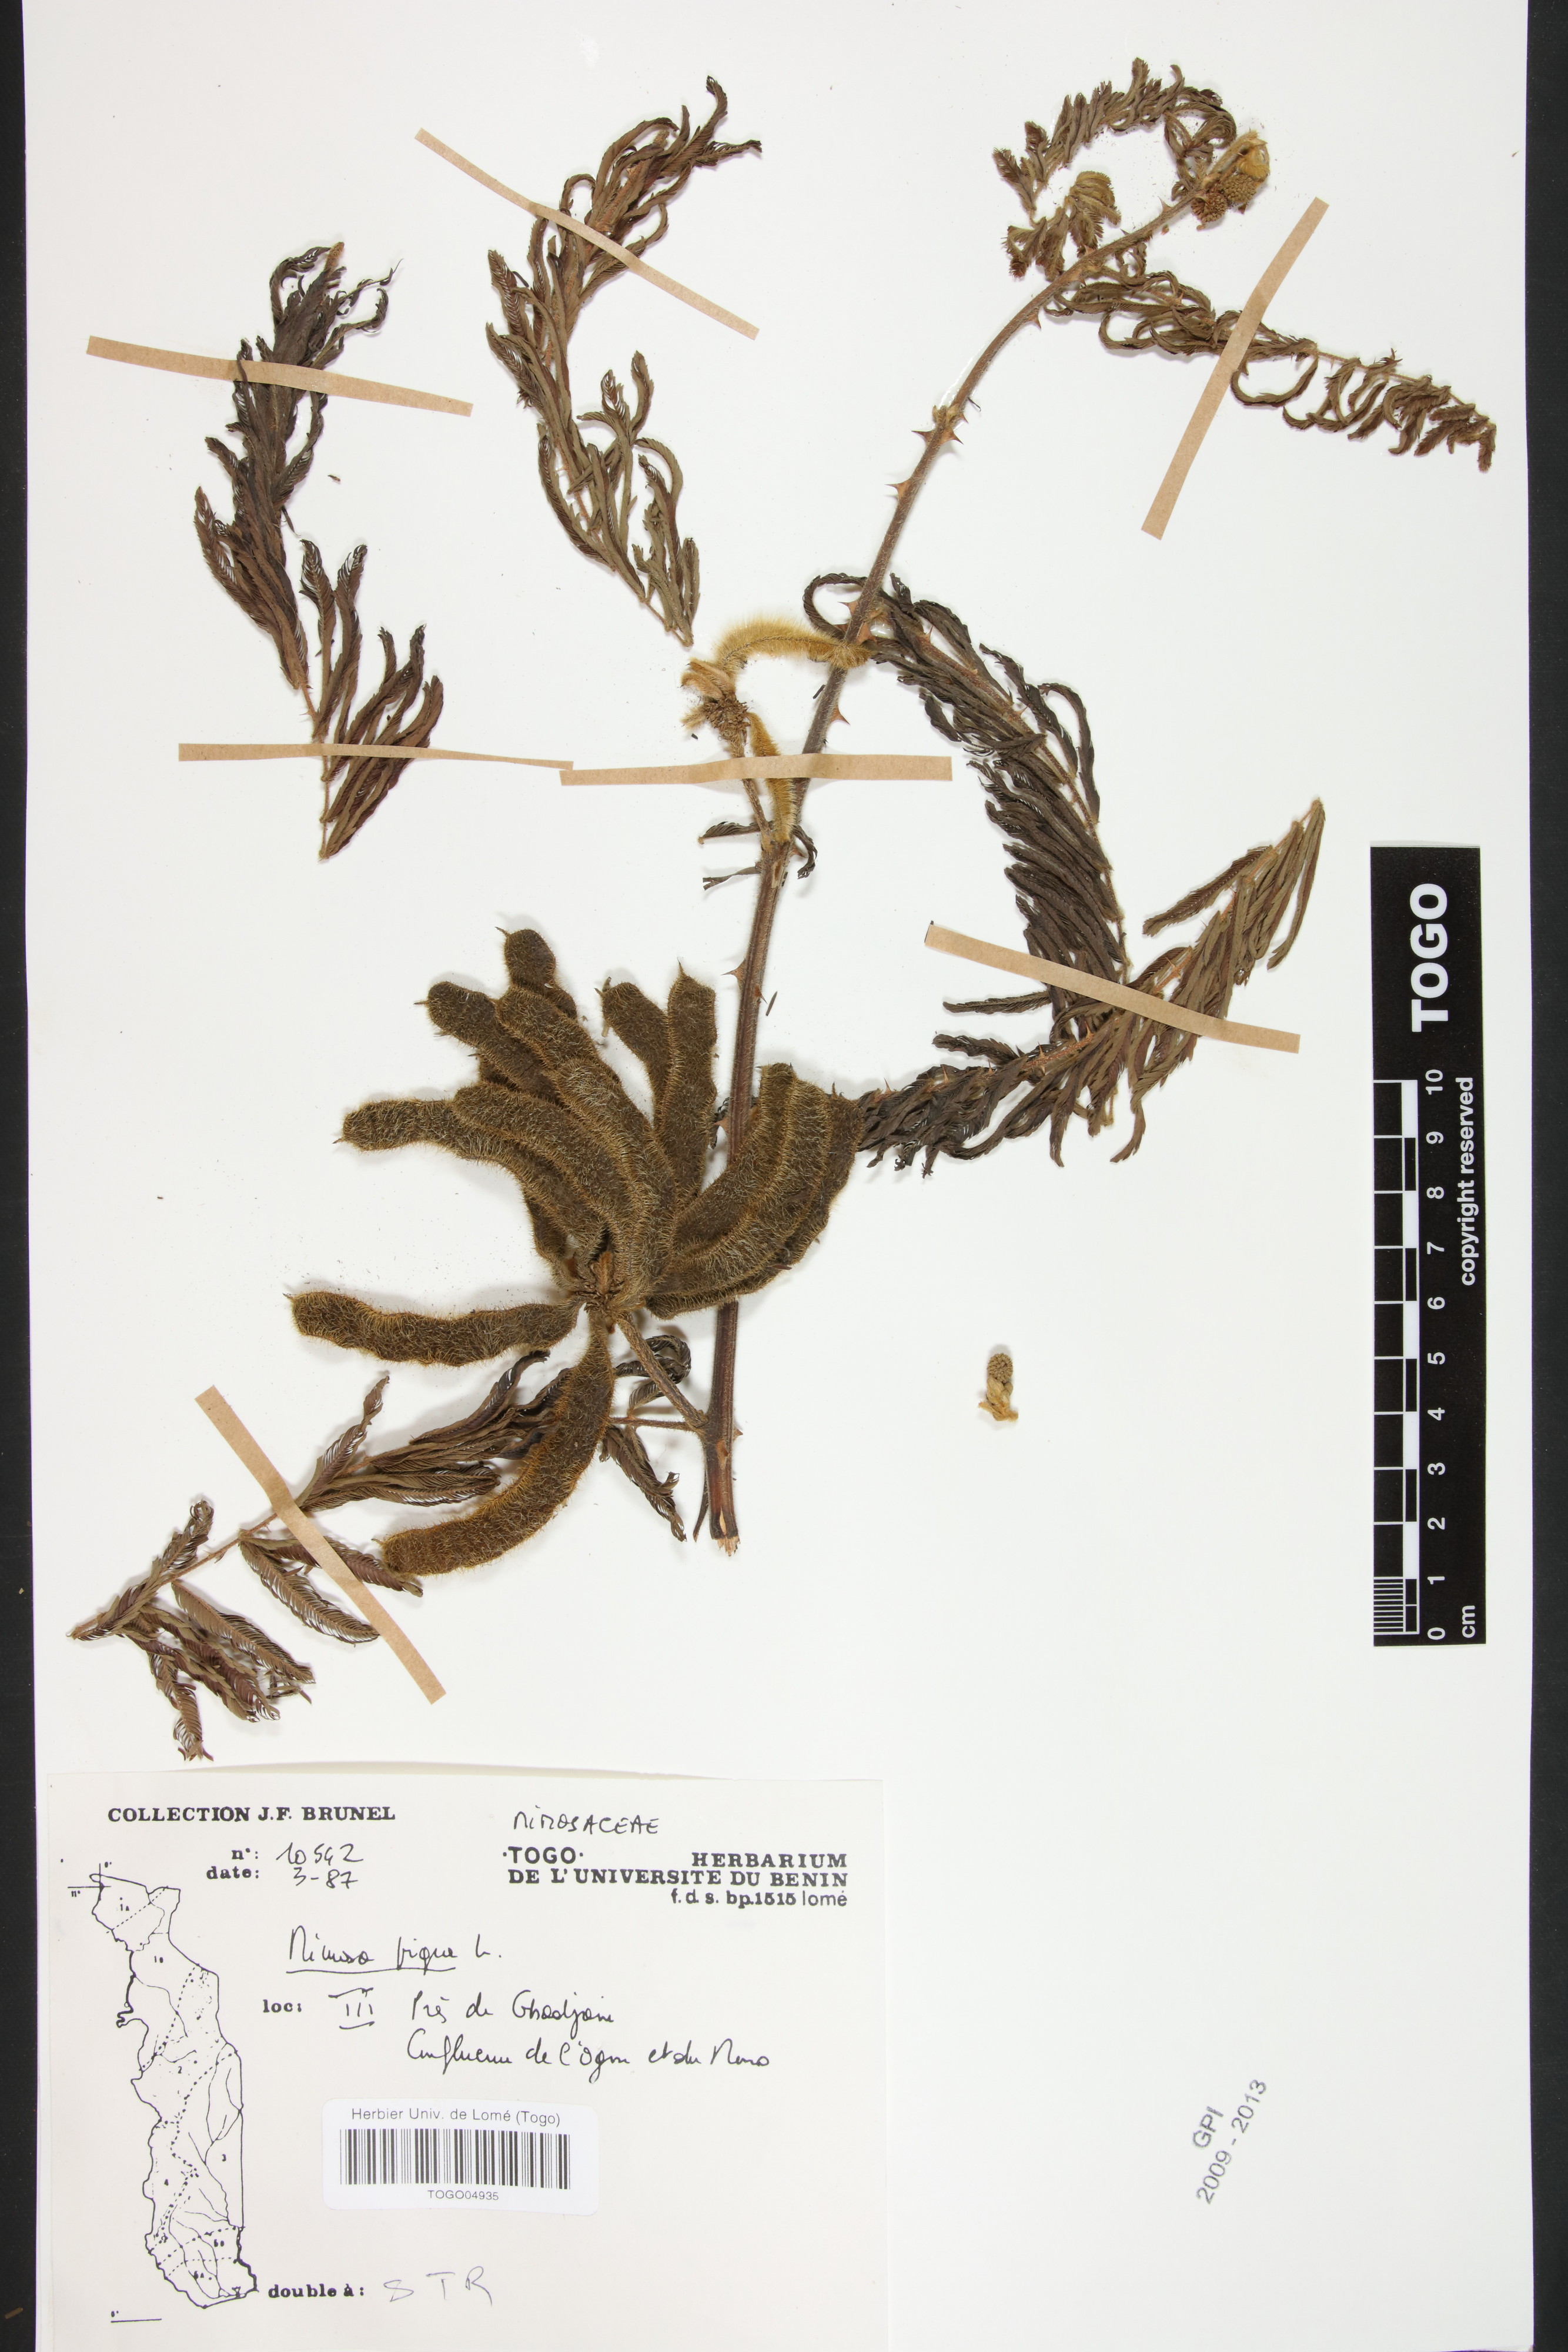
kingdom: Plantae
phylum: Tracheophyta
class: Magnoliopsida
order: Fabales
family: Fabaceae
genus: Mimosa
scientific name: Mimosa pigra
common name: Black mimosa
